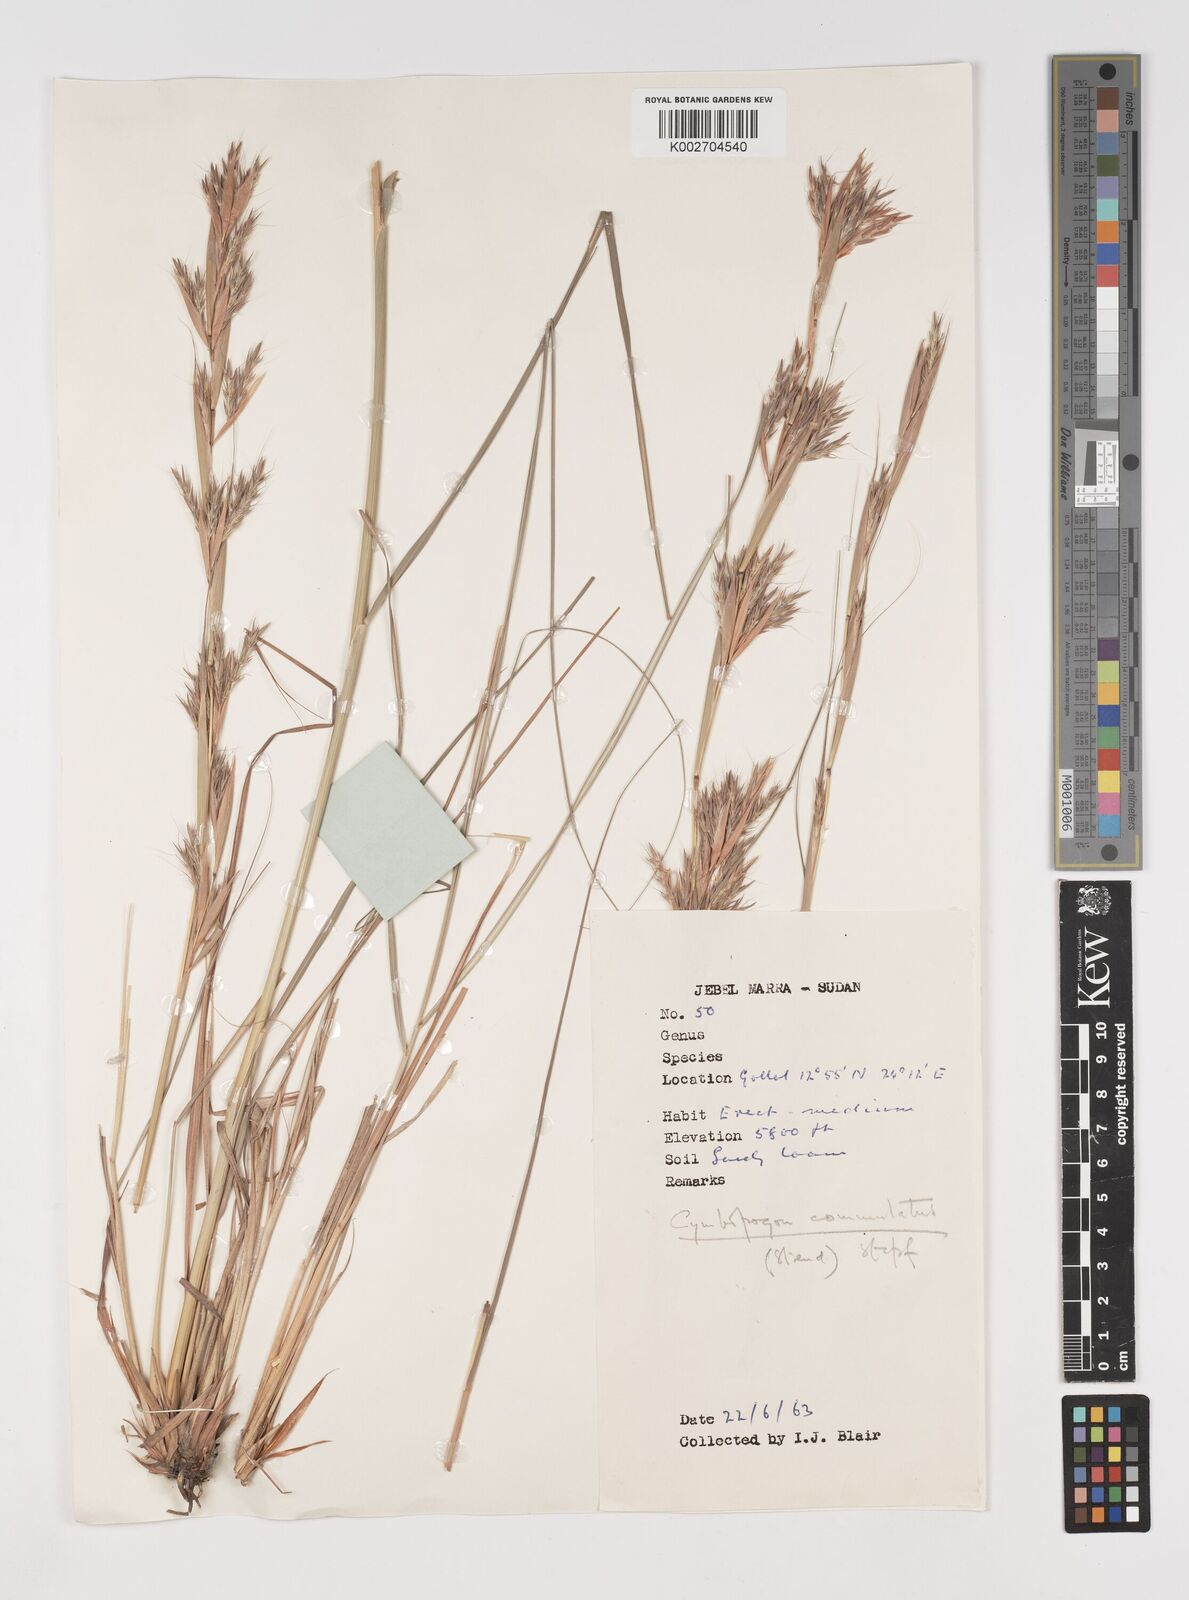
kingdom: Plantae
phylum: Tracheophyta
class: Liliopsida
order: Poales
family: Poaceae
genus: Cymbopogon
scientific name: Cymbopogon commutatus
